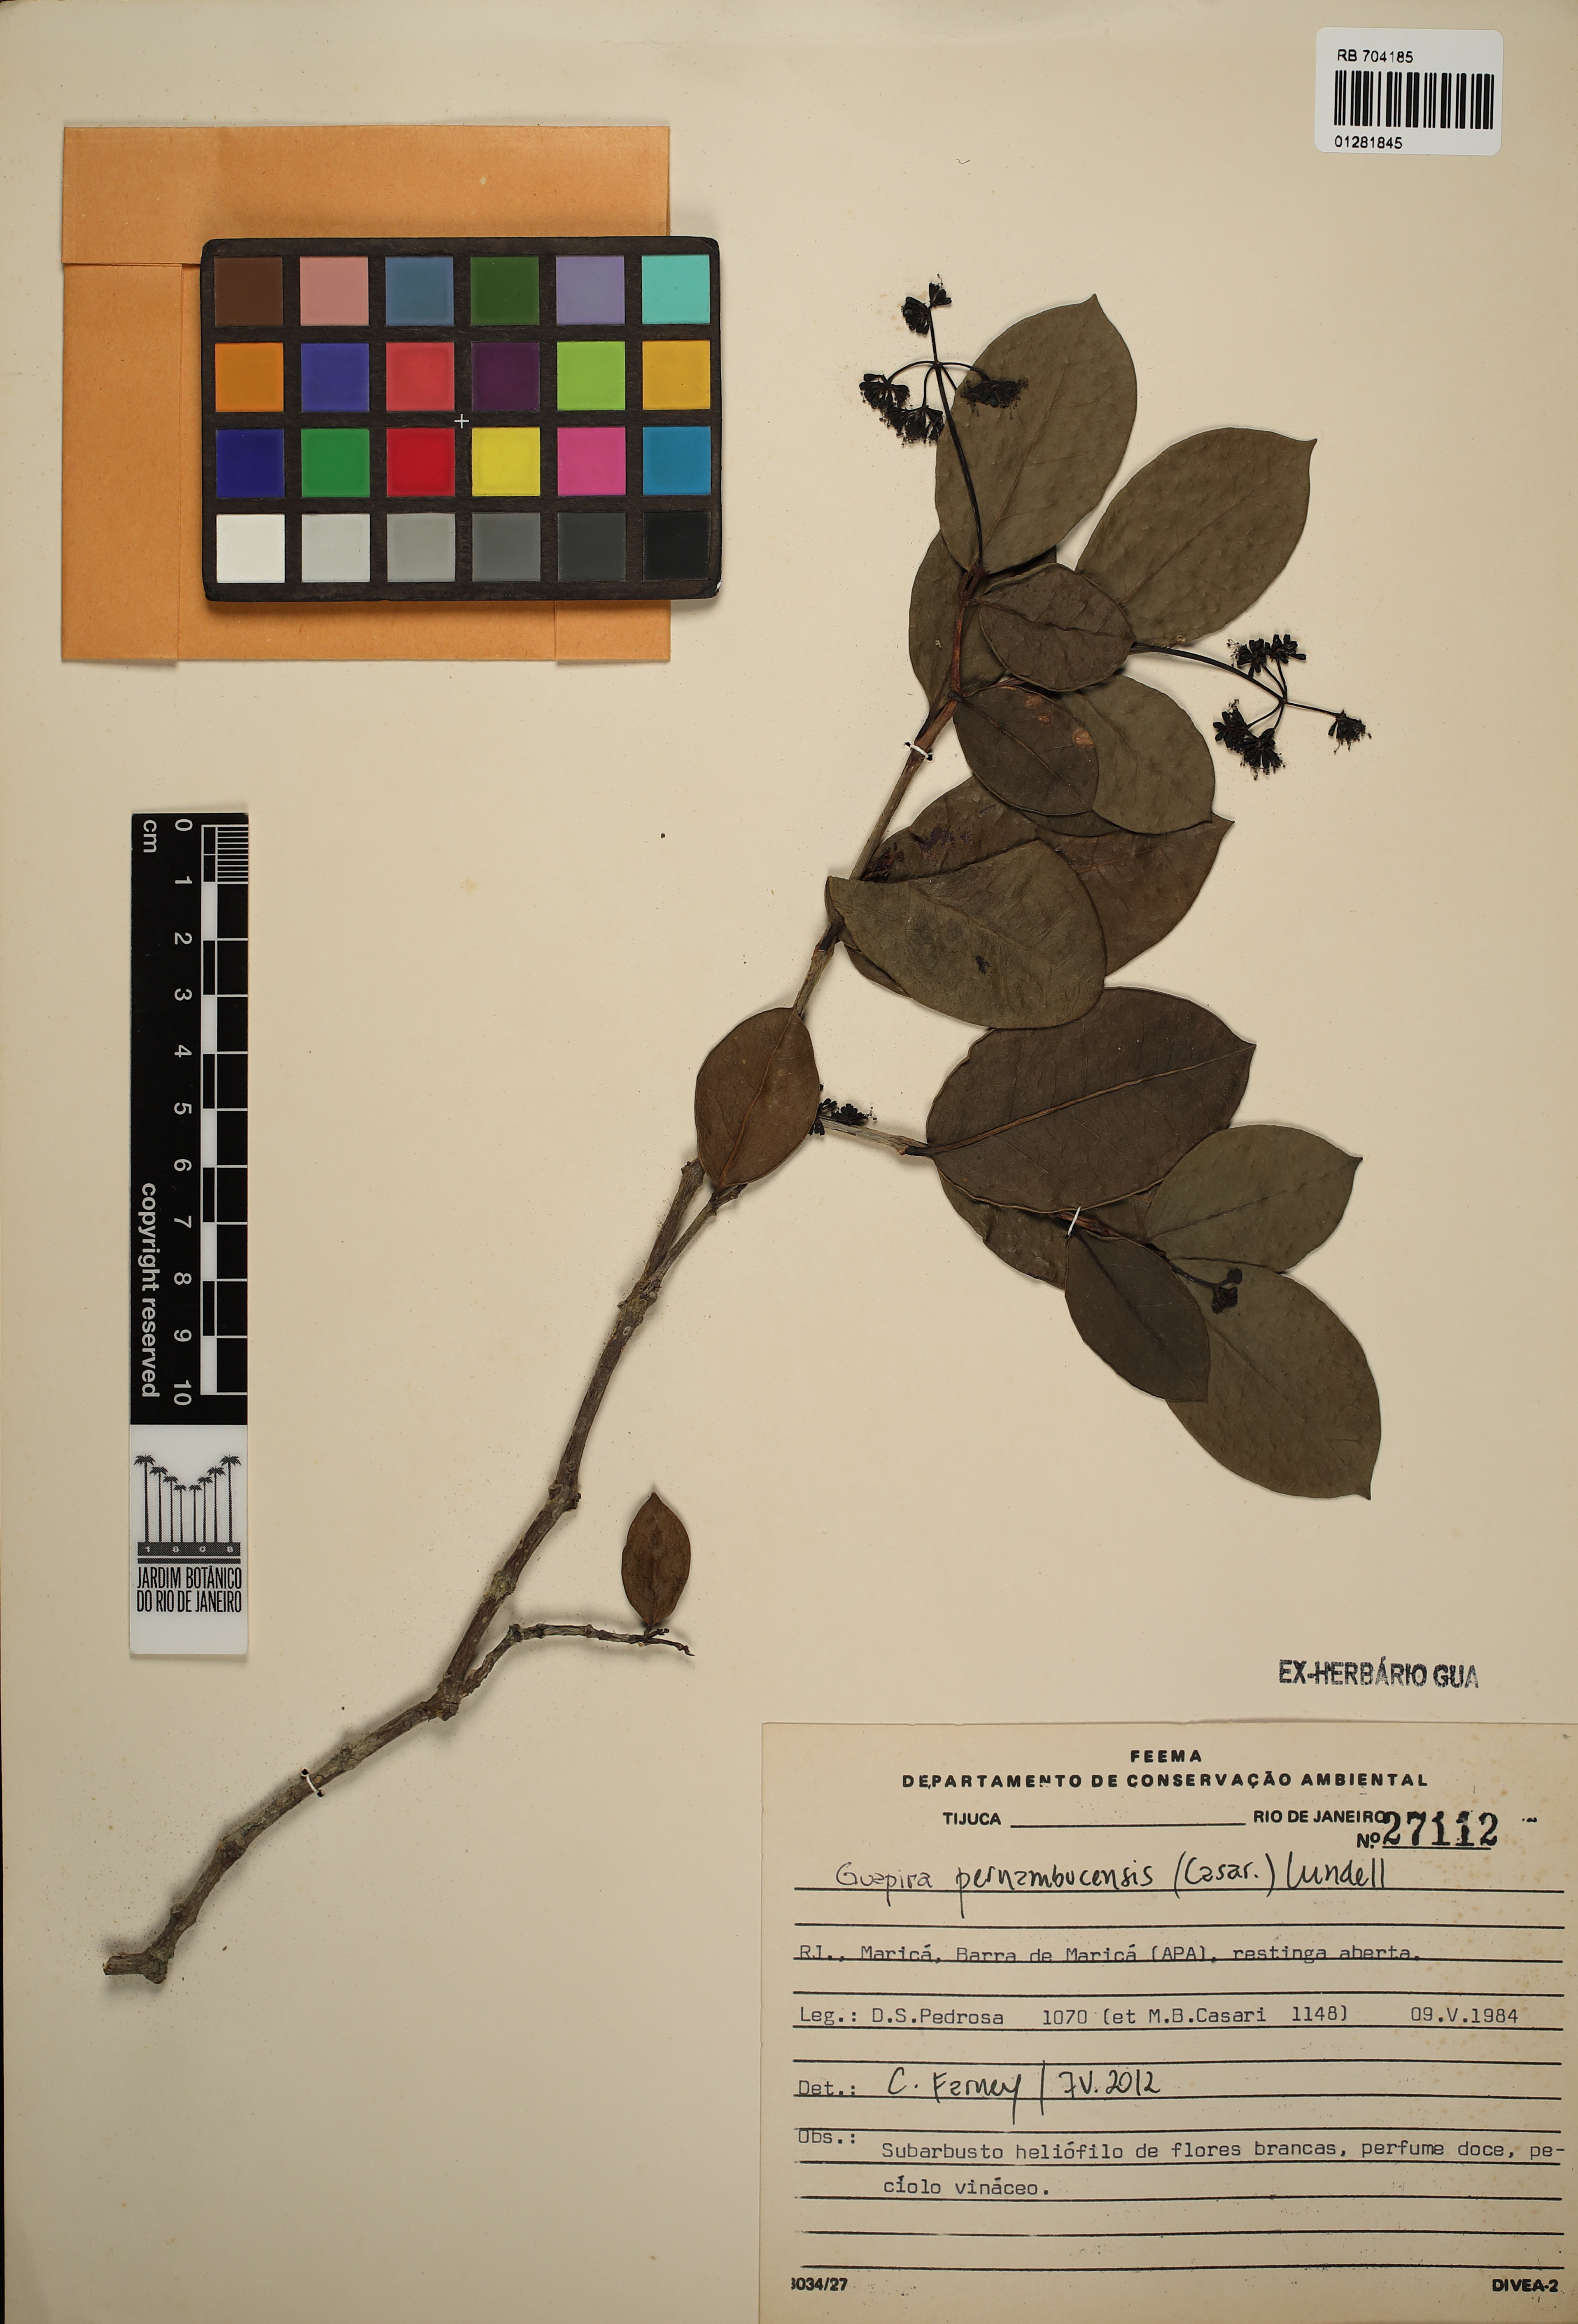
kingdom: Plantae
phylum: Tracheophyta
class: Magnoliopsida
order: Caryophyllales
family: Nyctaginaceae
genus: Guapira
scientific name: Guapira pernambucensis
